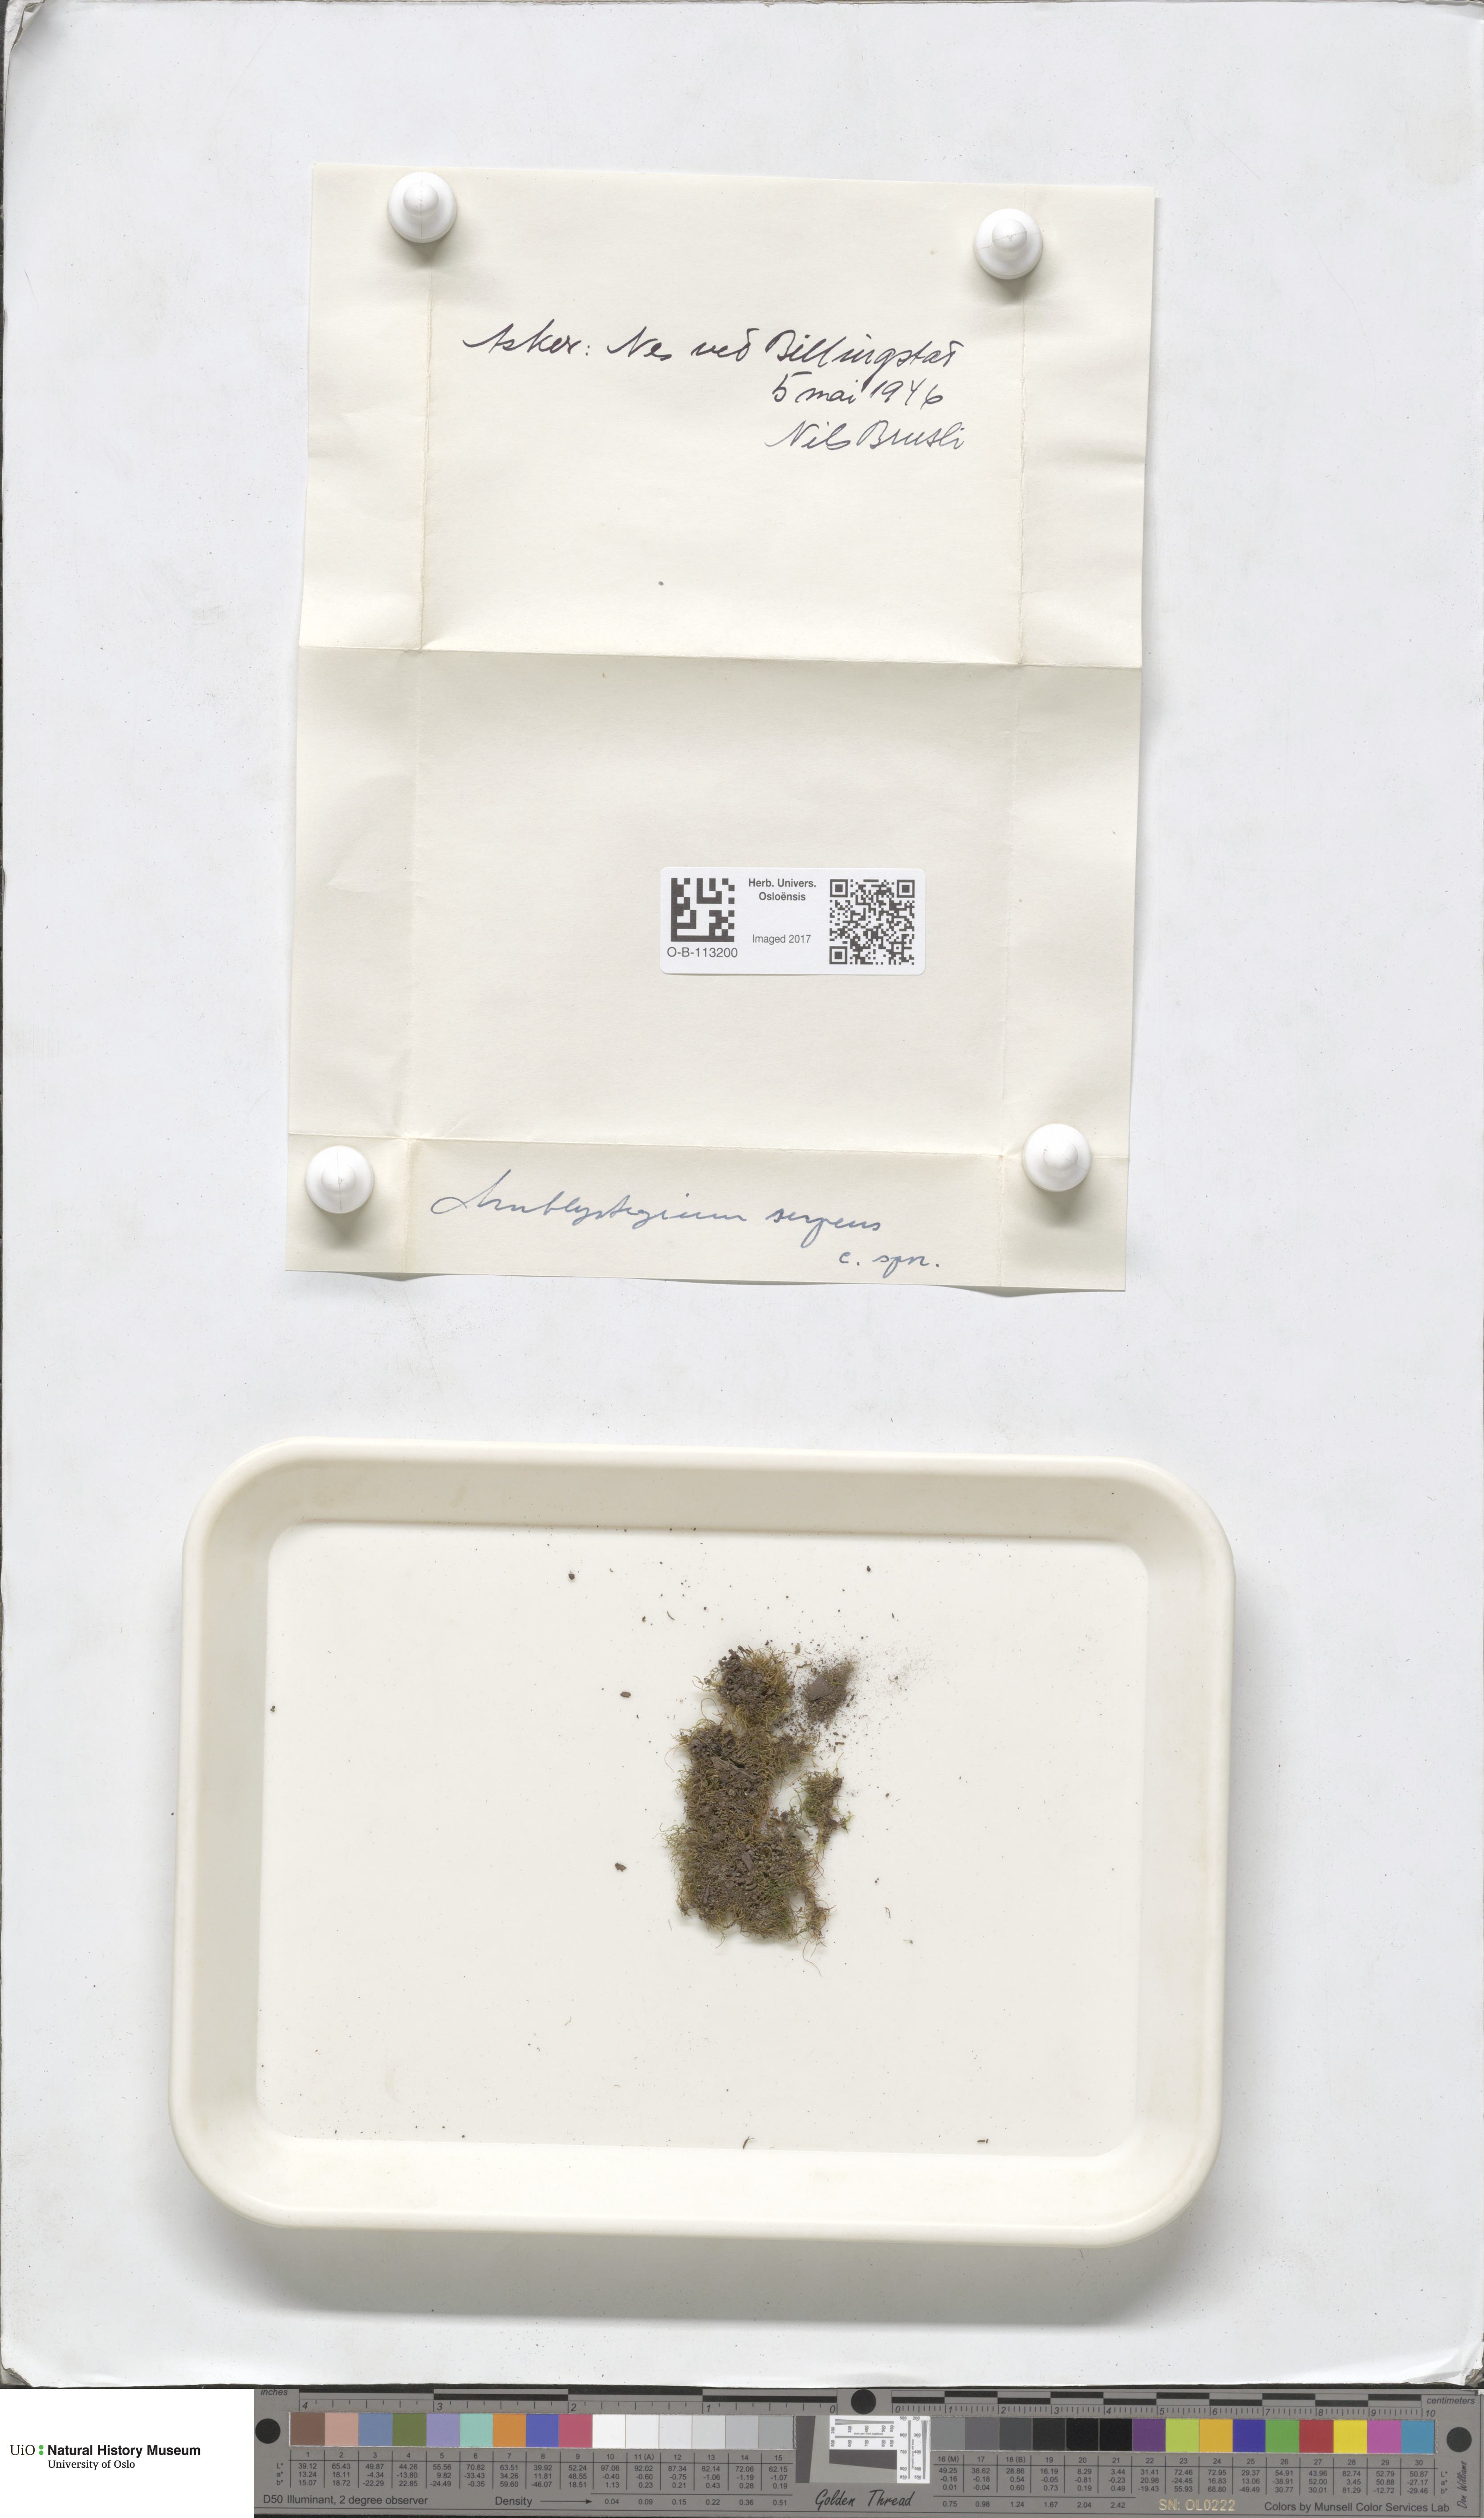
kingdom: Plantae
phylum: Bryophyta
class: Bryopsida
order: Hypnales
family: Amblystegiaceae
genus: Amblystegium
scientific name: Amblystegium serpens
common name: Jurkatzka's feather moss
